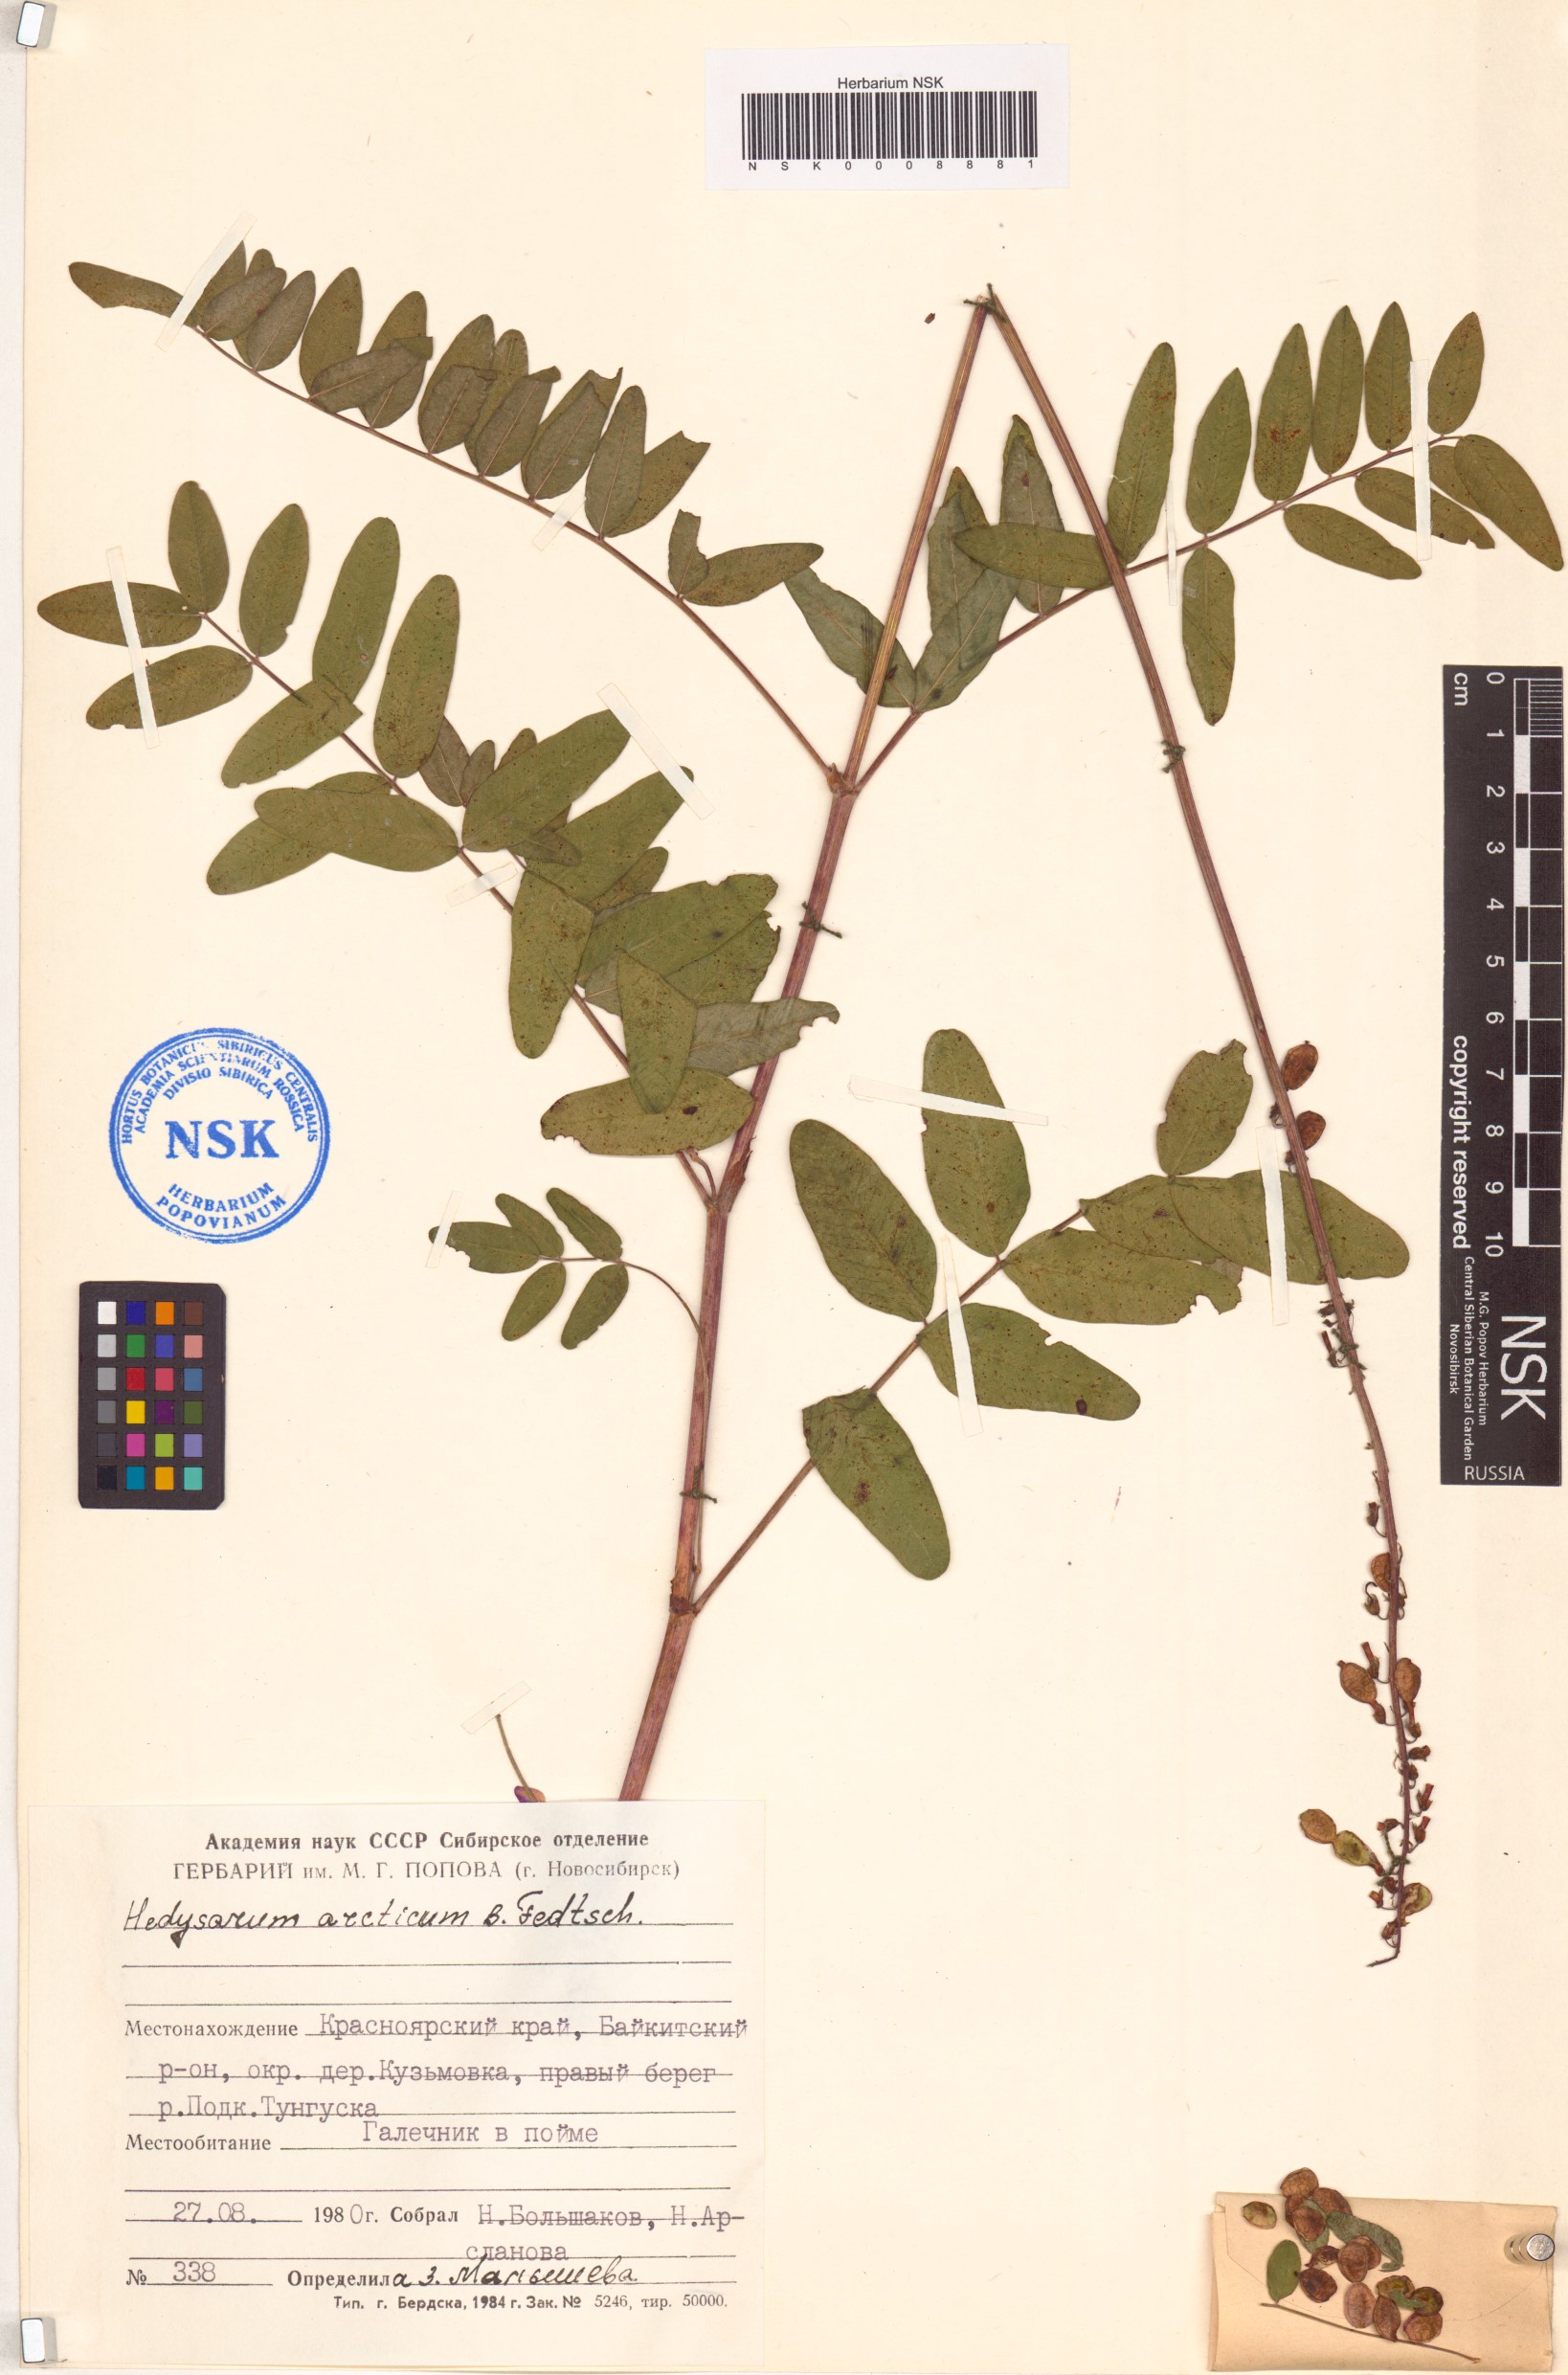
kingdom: Plantae
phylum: Tracheophyta
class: Magnoliopsida
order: Fabales
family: Fabaceae
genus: Hedysarum
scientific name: Hedysarum hedysaroides
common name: Alpine french-honeysuckle
